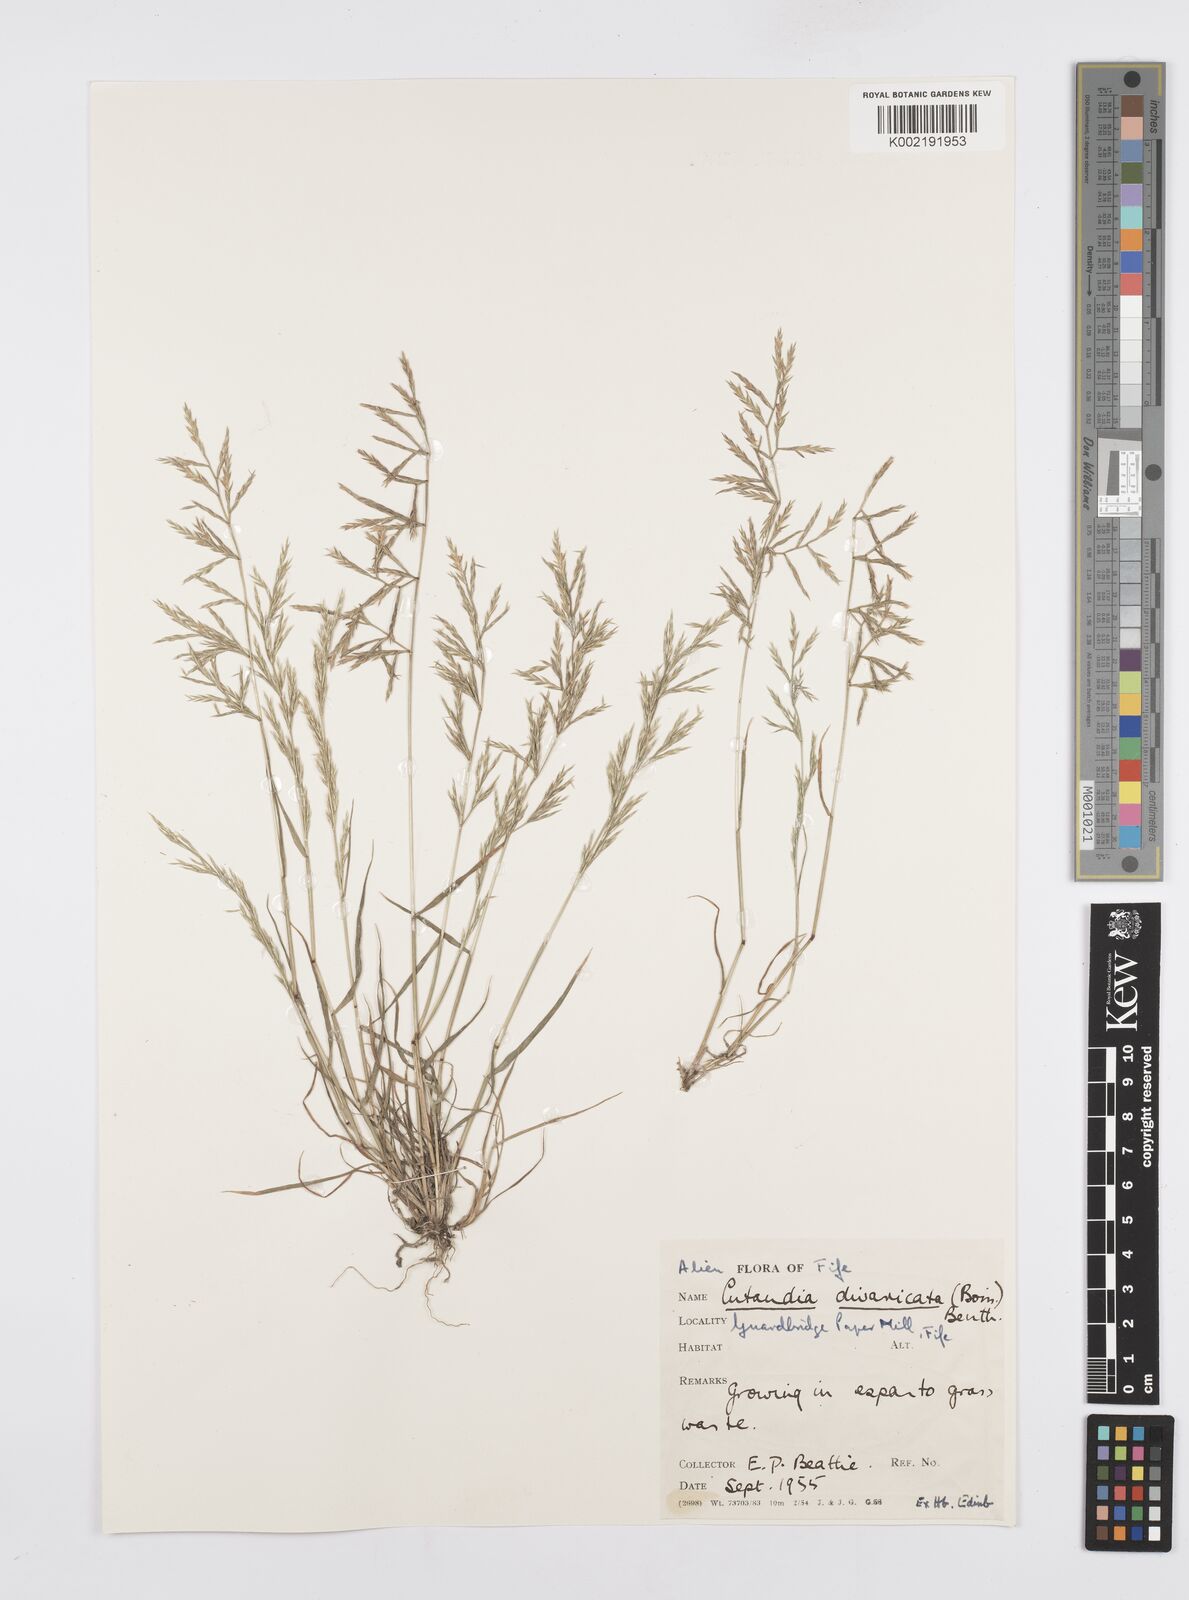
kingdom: Plantae
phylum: Tracheophyta
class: Liliopsida
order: Poales
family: Poaceae
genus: Cutandia
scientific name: Cutandia divaricata
